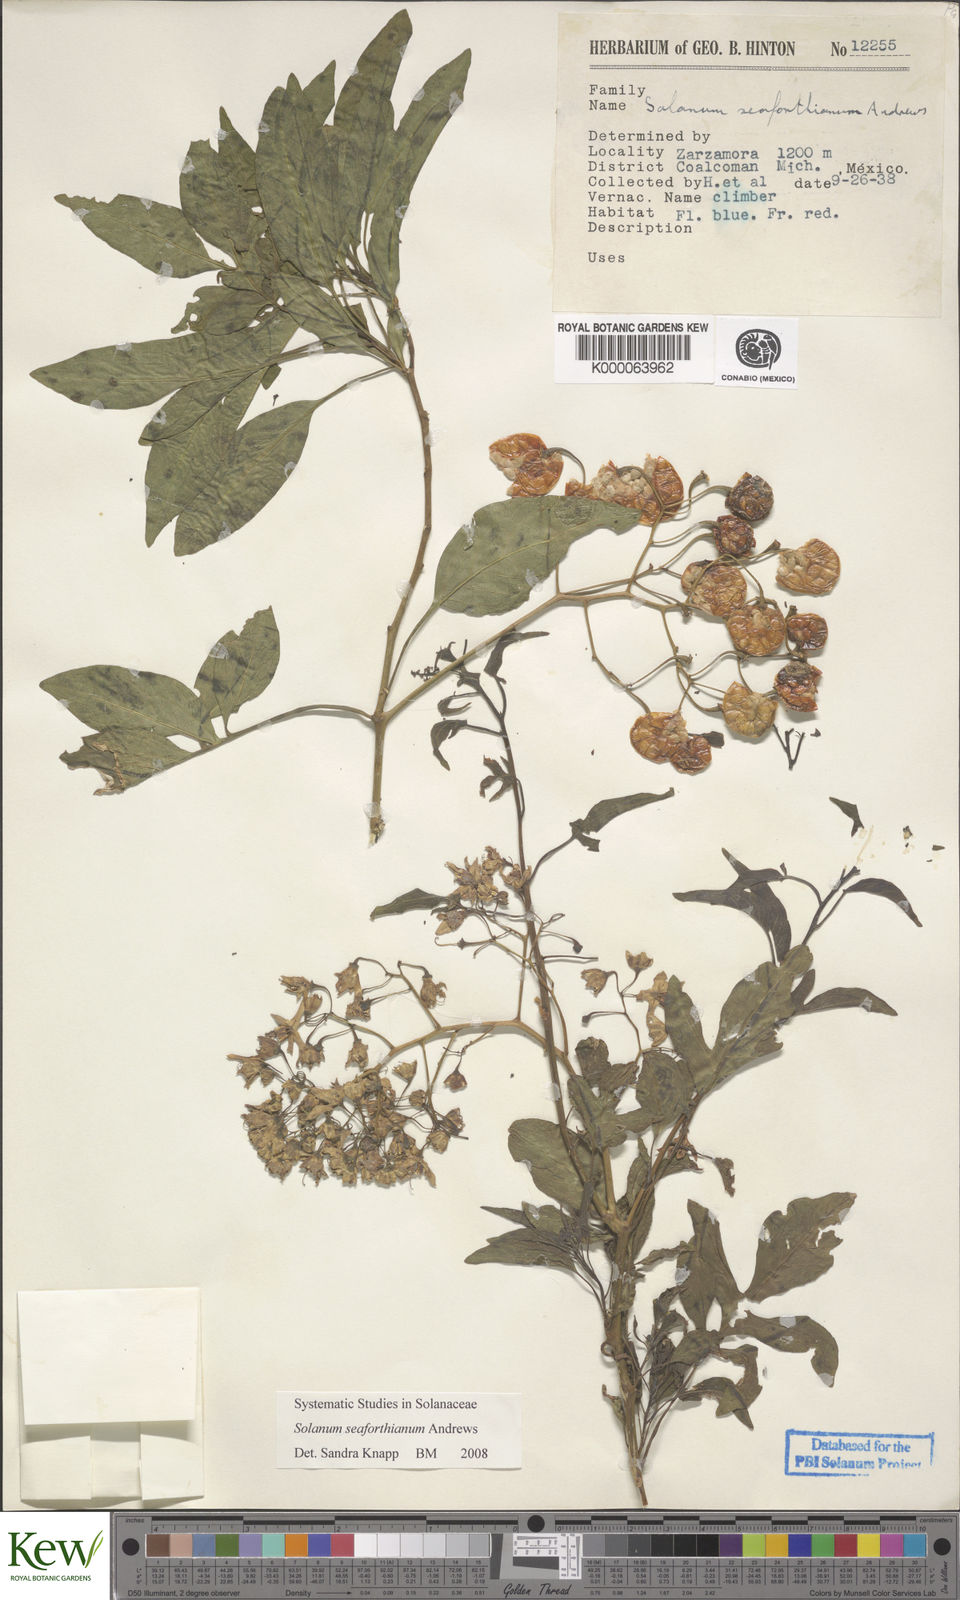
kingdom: Plantae
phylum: Tracheophyta
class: Magnoliopsida
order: Solanales
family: Solanaceae
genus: Solanum
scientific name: Solanum seaforthianum
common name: Brazilian nightshade
